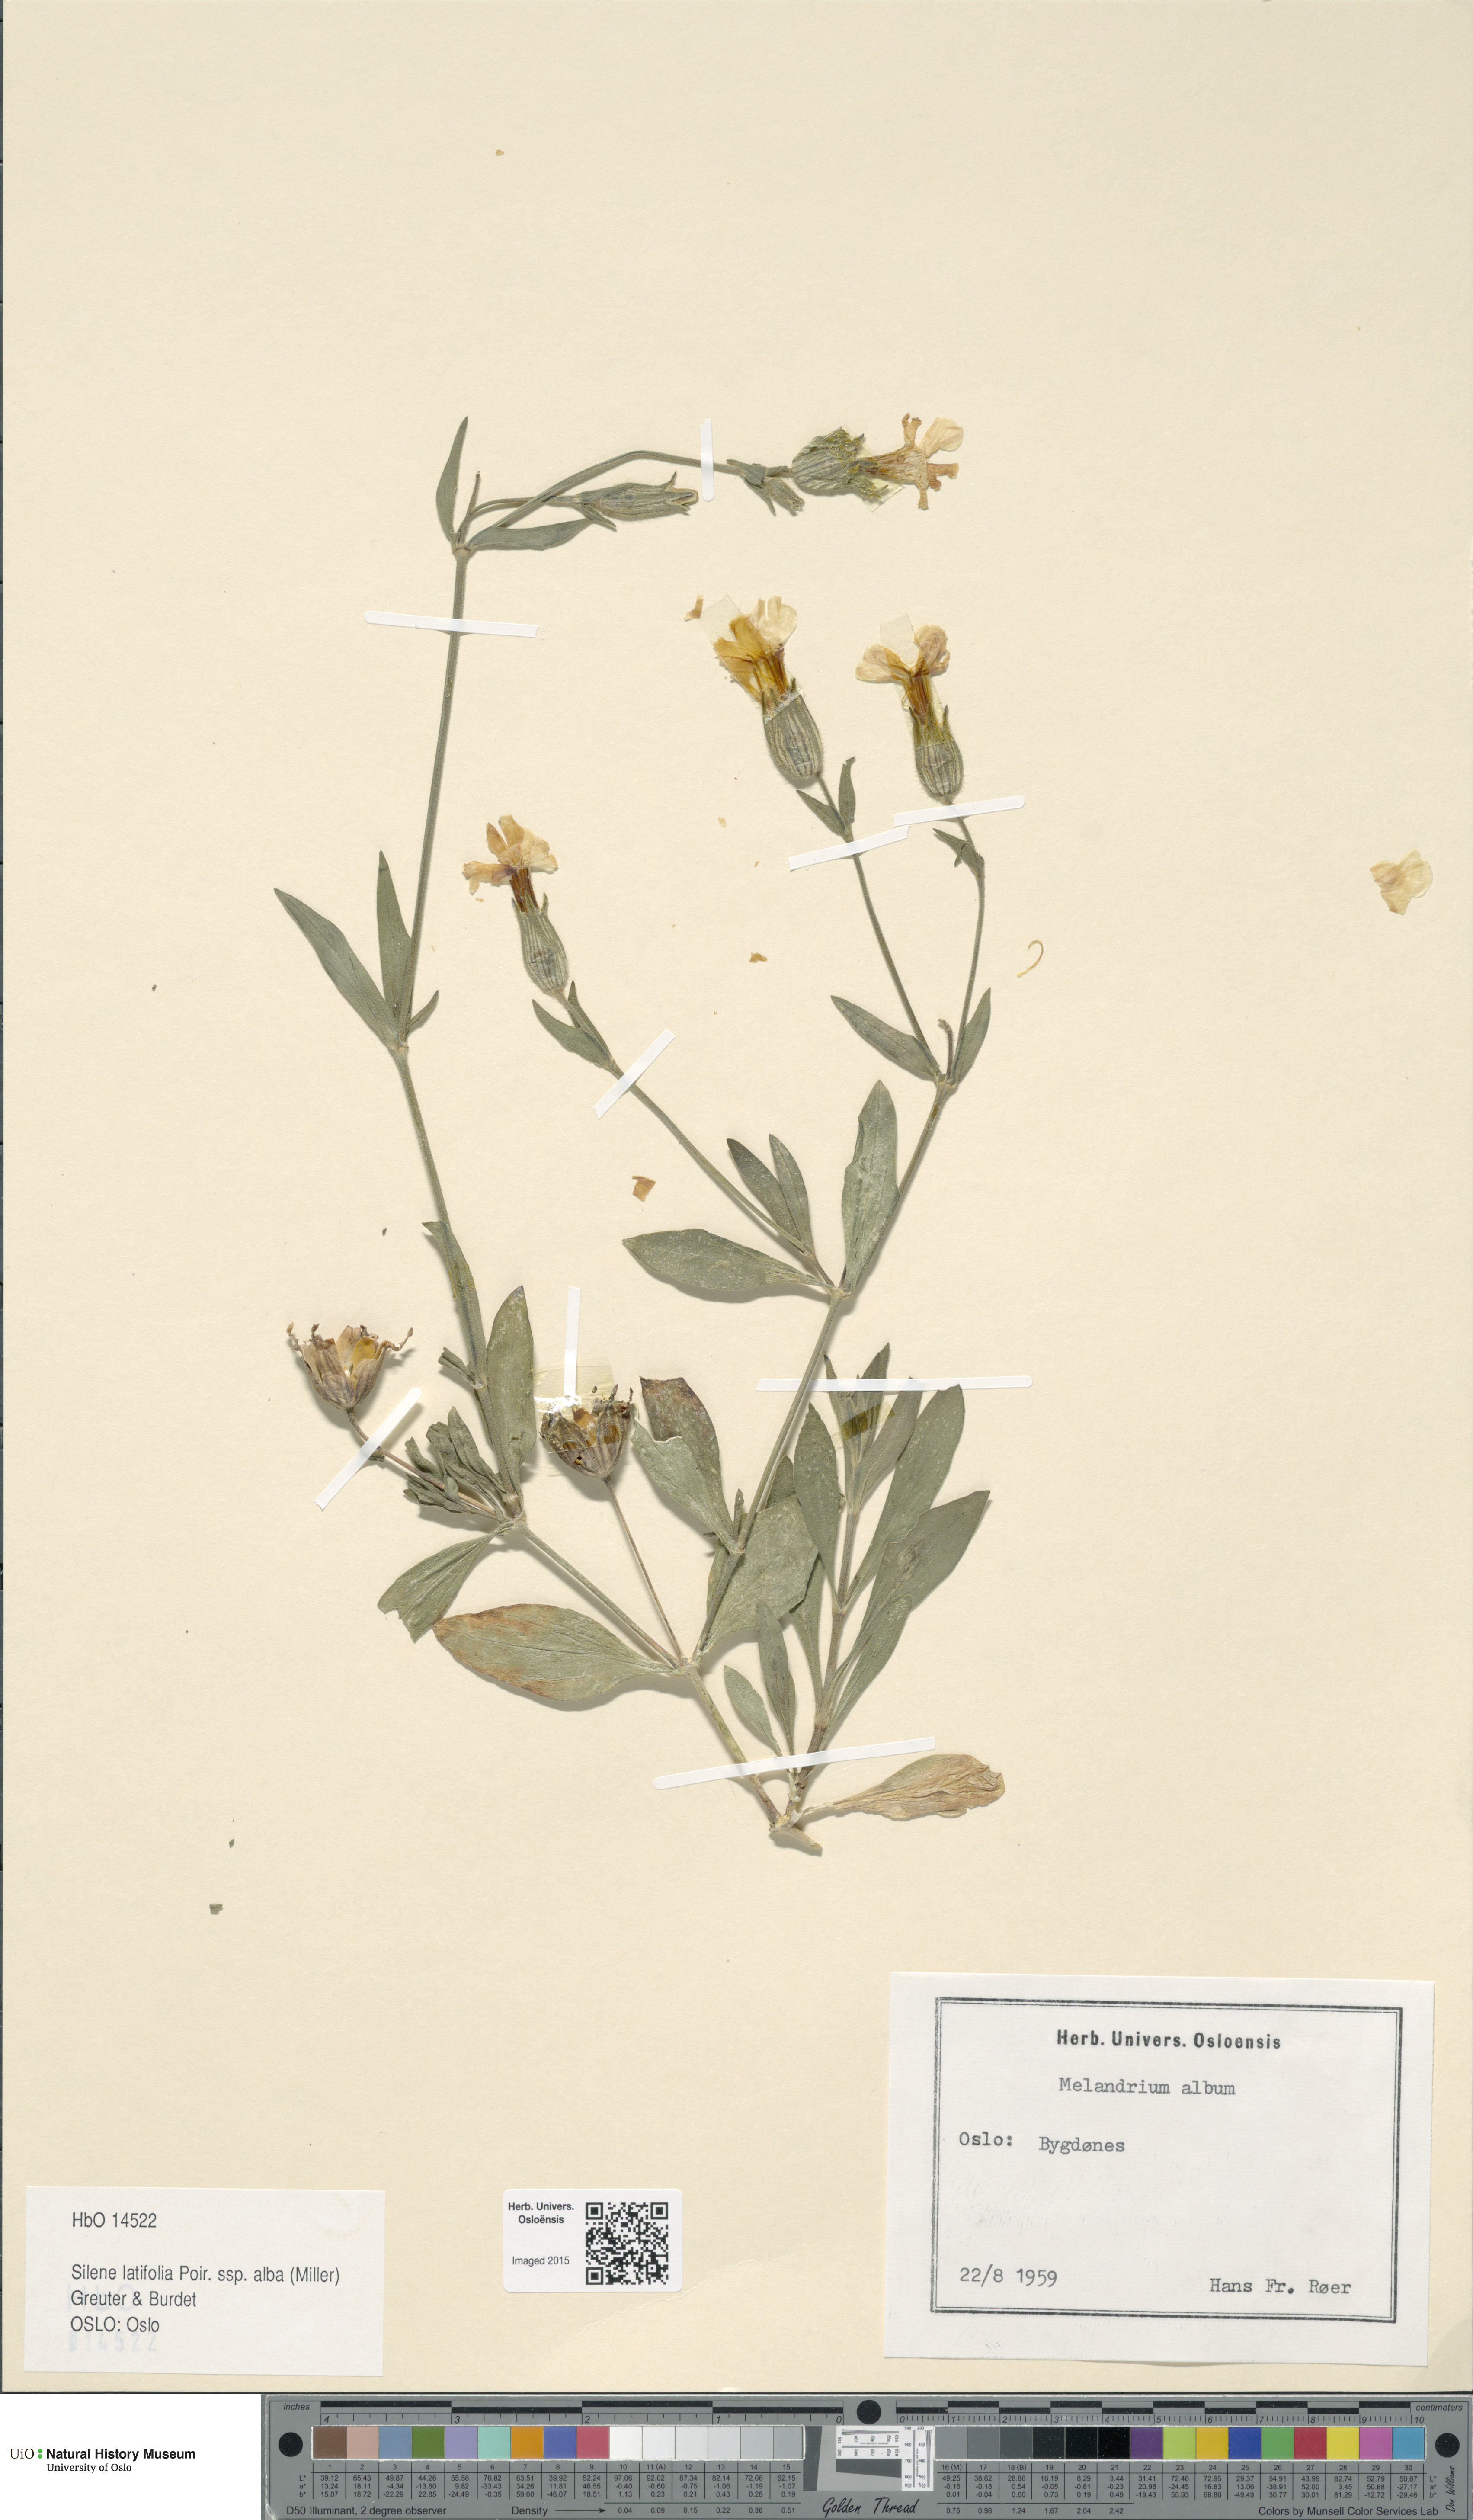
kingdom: Plantae
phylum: Tracheophyta
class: Magnoliopsida
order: Caryophyllales
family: Caryophyllaceae
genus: Silene
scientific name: Silene latifolia
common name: White campion
